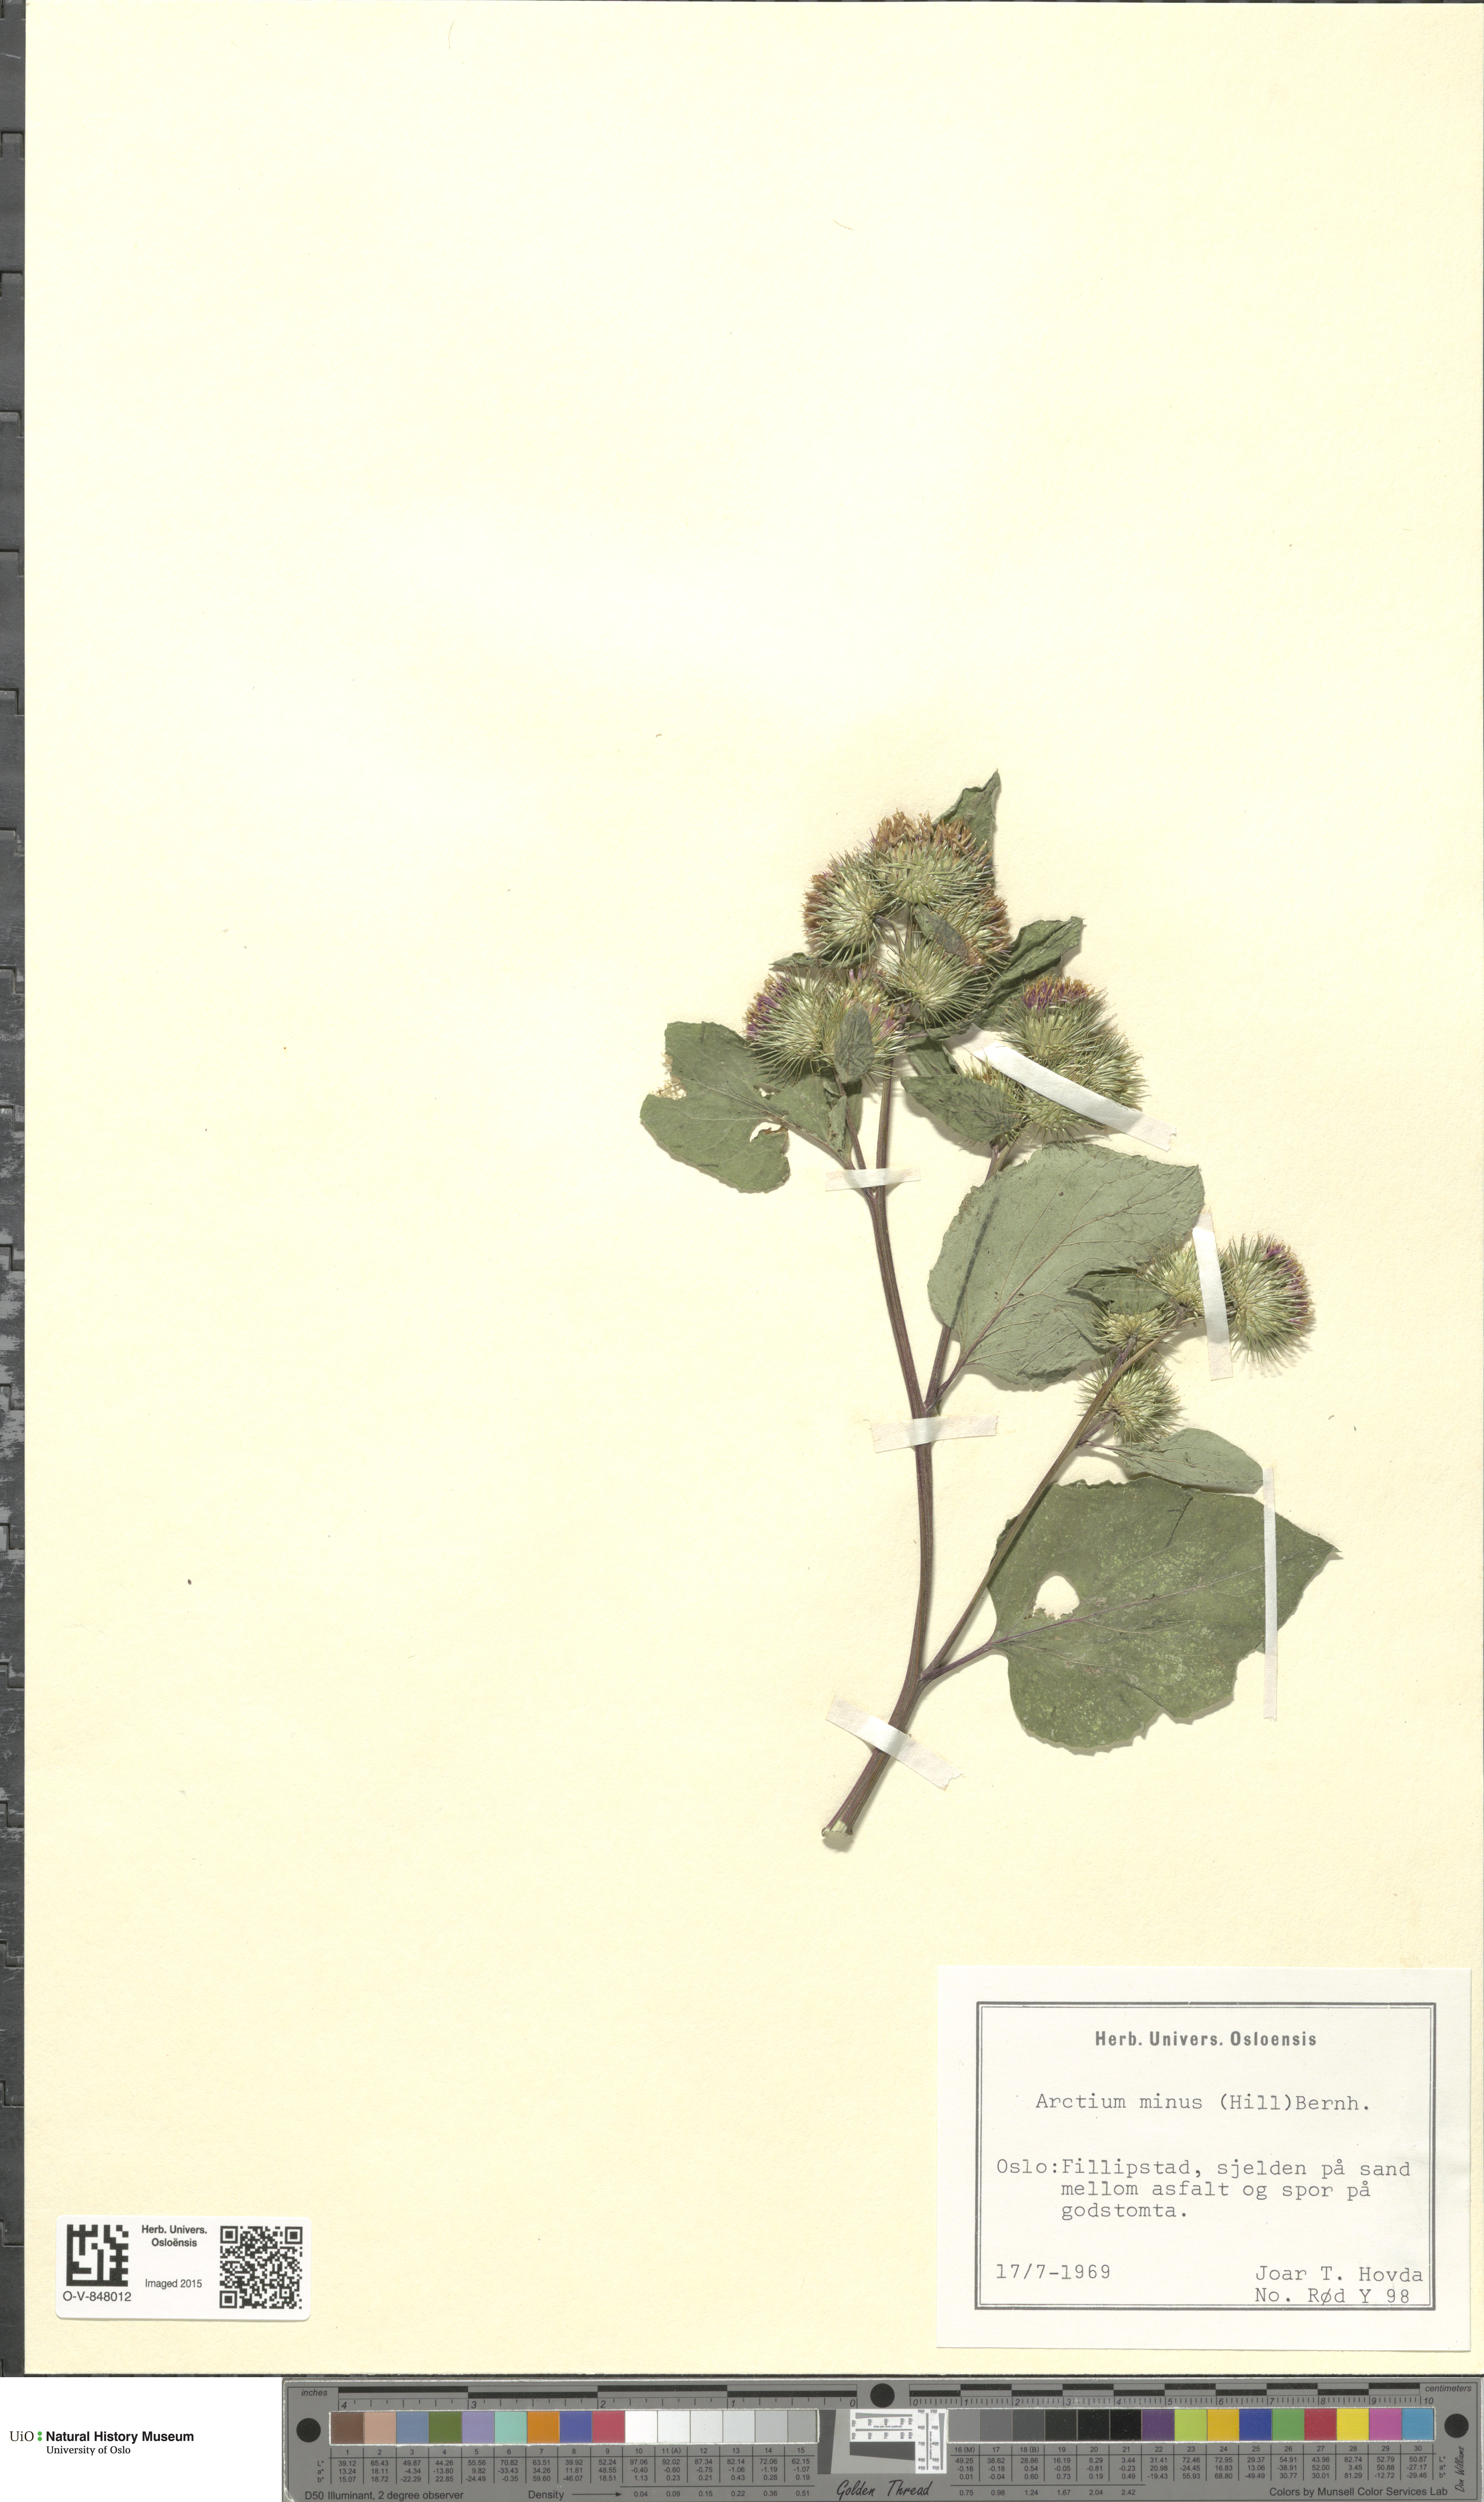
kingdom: Plantae
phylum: Tracheophyta
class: Magnoliopsida
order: Asterales
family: Asteraceae
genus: Arctium
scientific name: Arctium minus
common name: Lesser burdock
